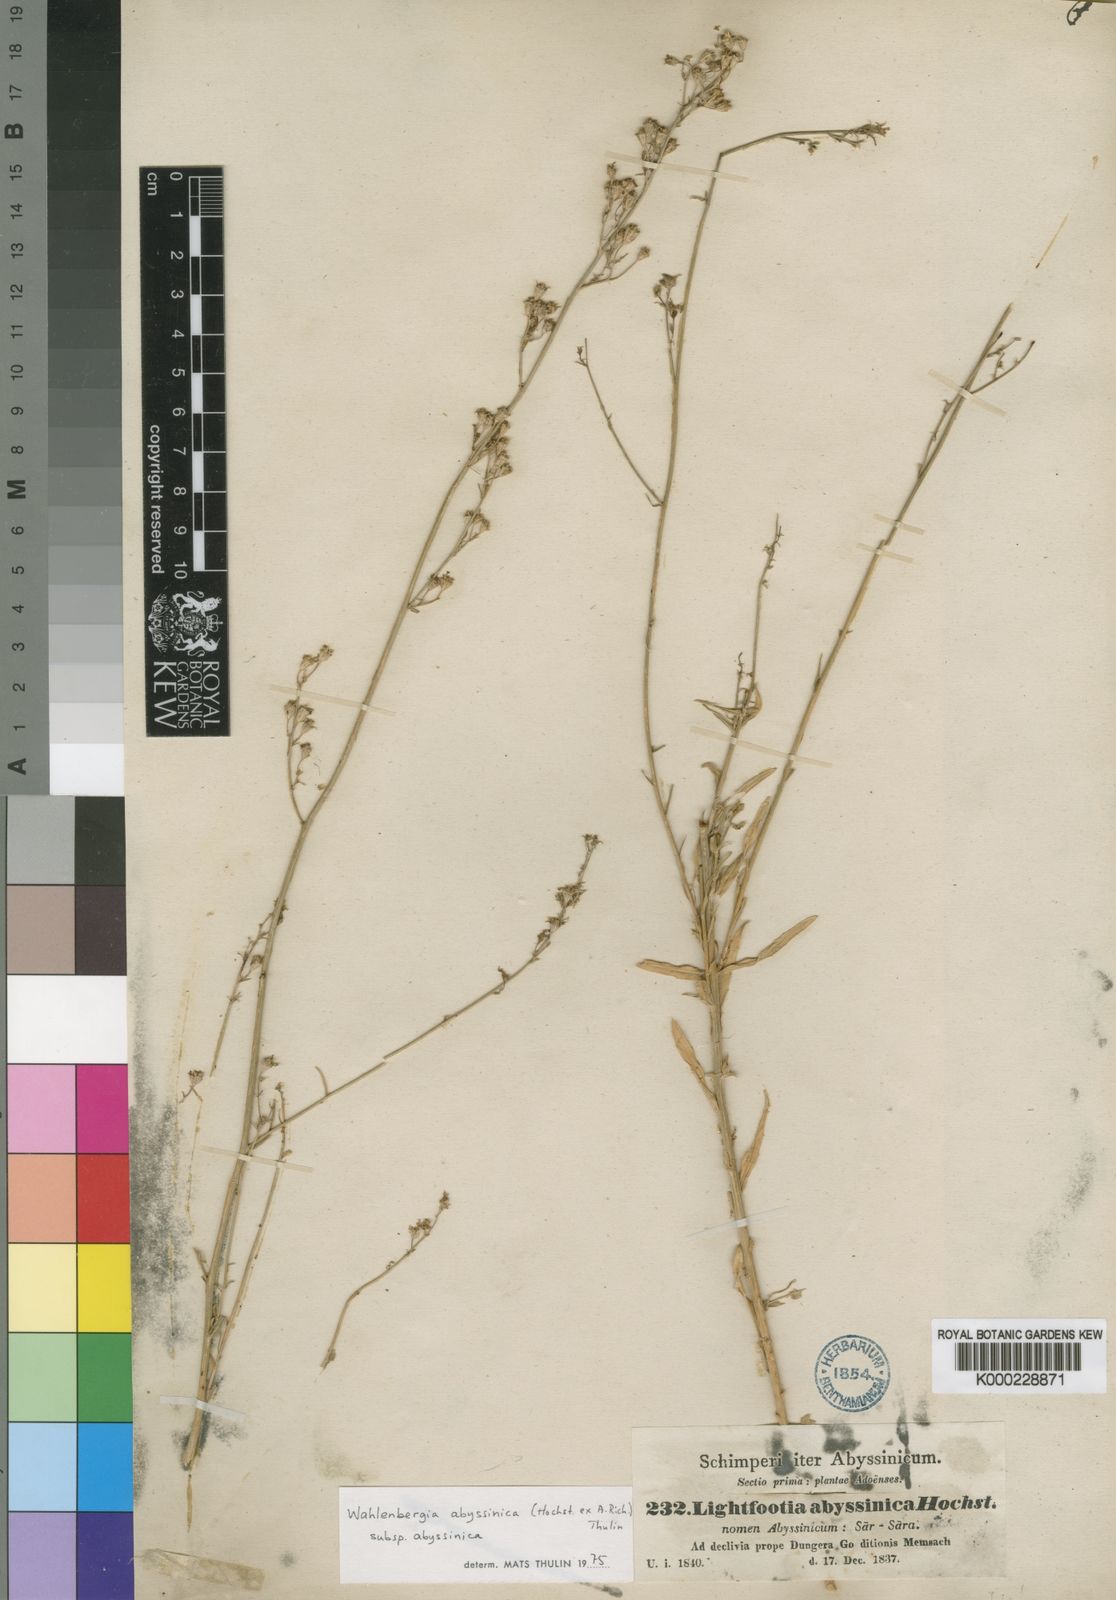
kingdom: Plantae
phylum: Tracheophyta
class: Magnoliopsida
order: Asterales
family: Campanulaceae
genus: Wahlenbergia
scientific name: Wahlenbergia abyssinica
